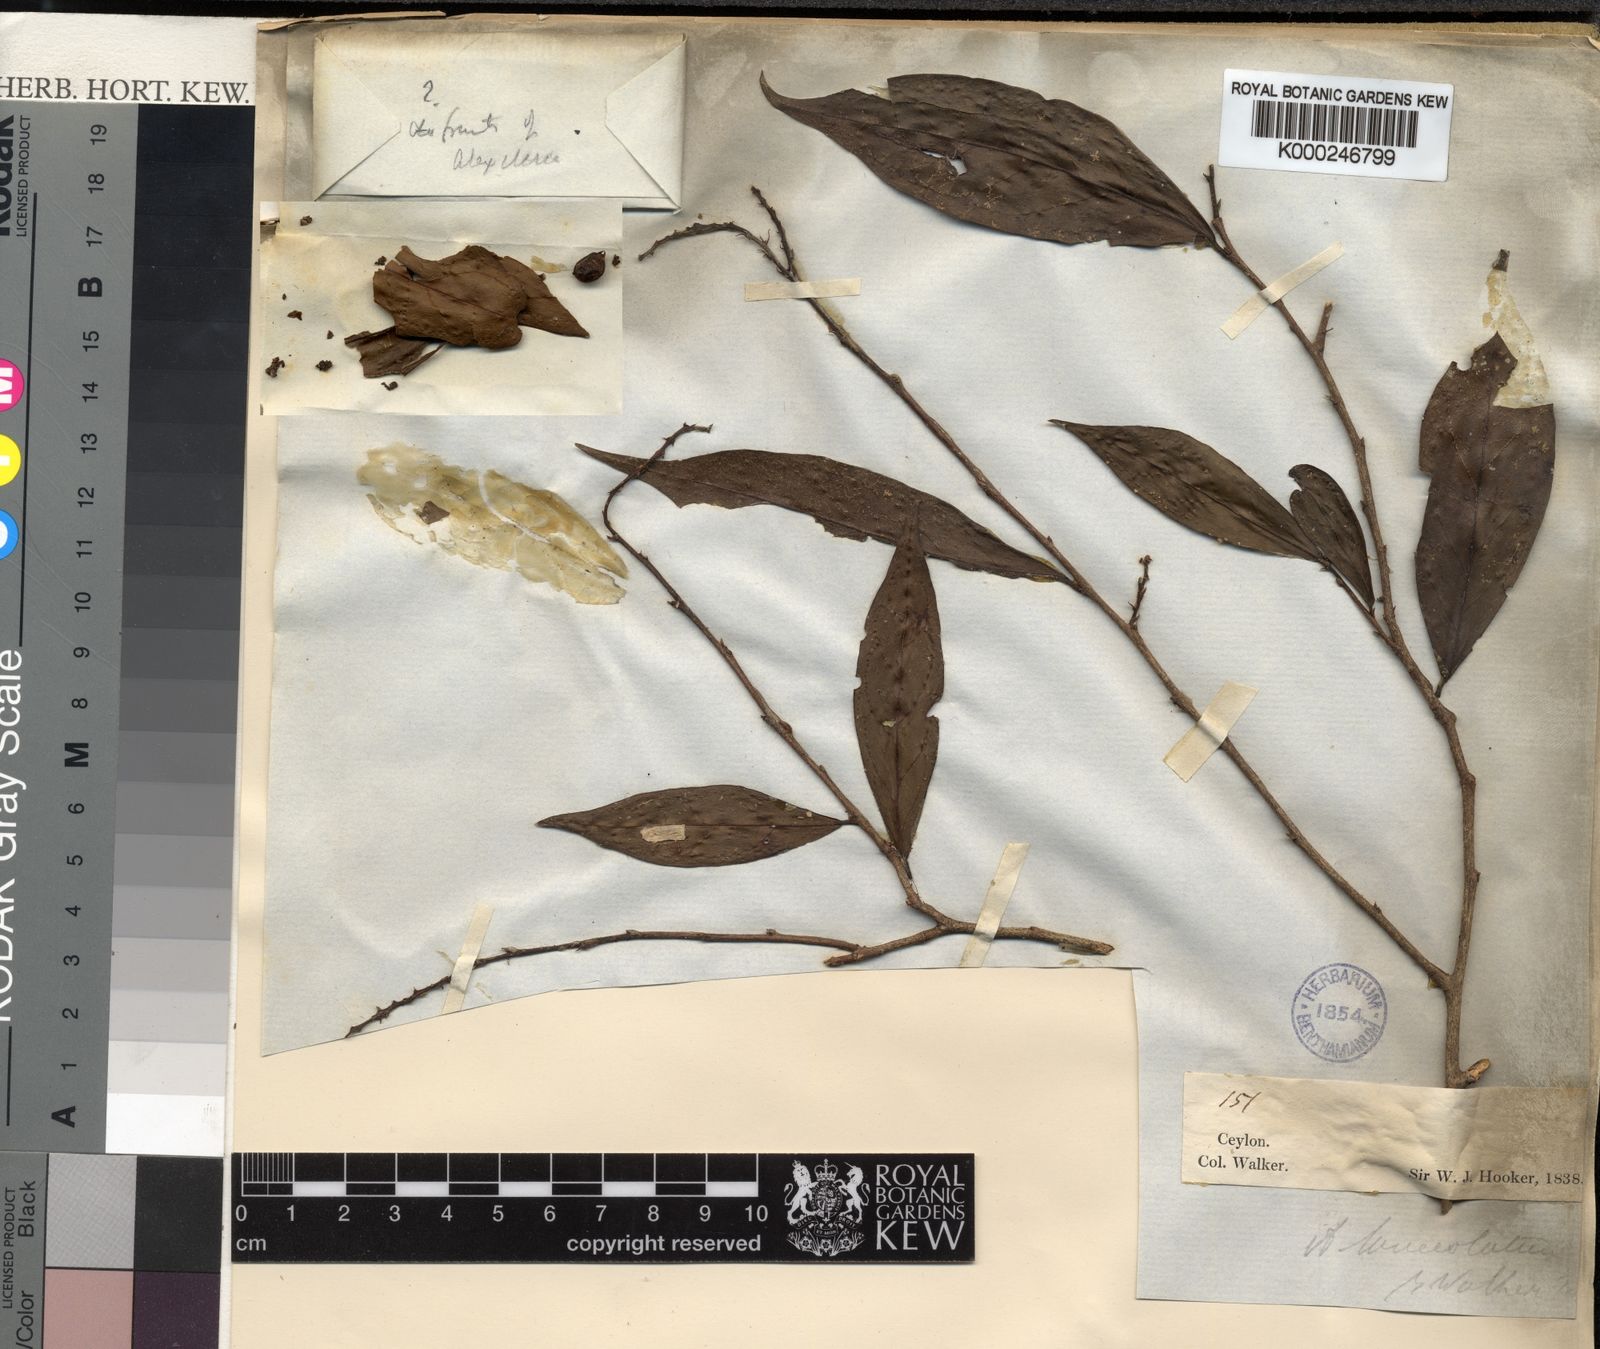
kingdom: Plantae
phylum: Tracheophyta
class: Magnoliopsida
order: Malpighiales
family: Phyllanthaceae
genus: Antidesma
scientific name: Antidesma comptum
